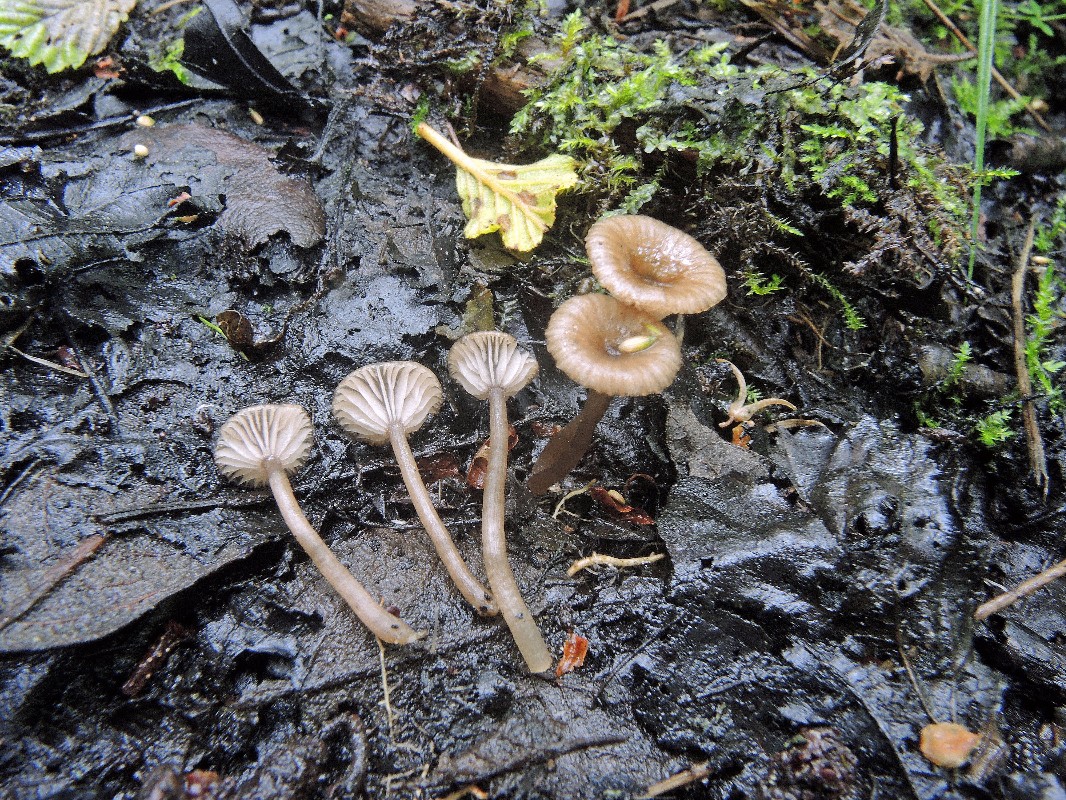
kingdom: Fungi
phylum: Basidiomycota
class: Agaricomycetes
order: Agaricales
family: Entolomataceae
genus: Entoloma
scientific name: Entoloma parkensis
